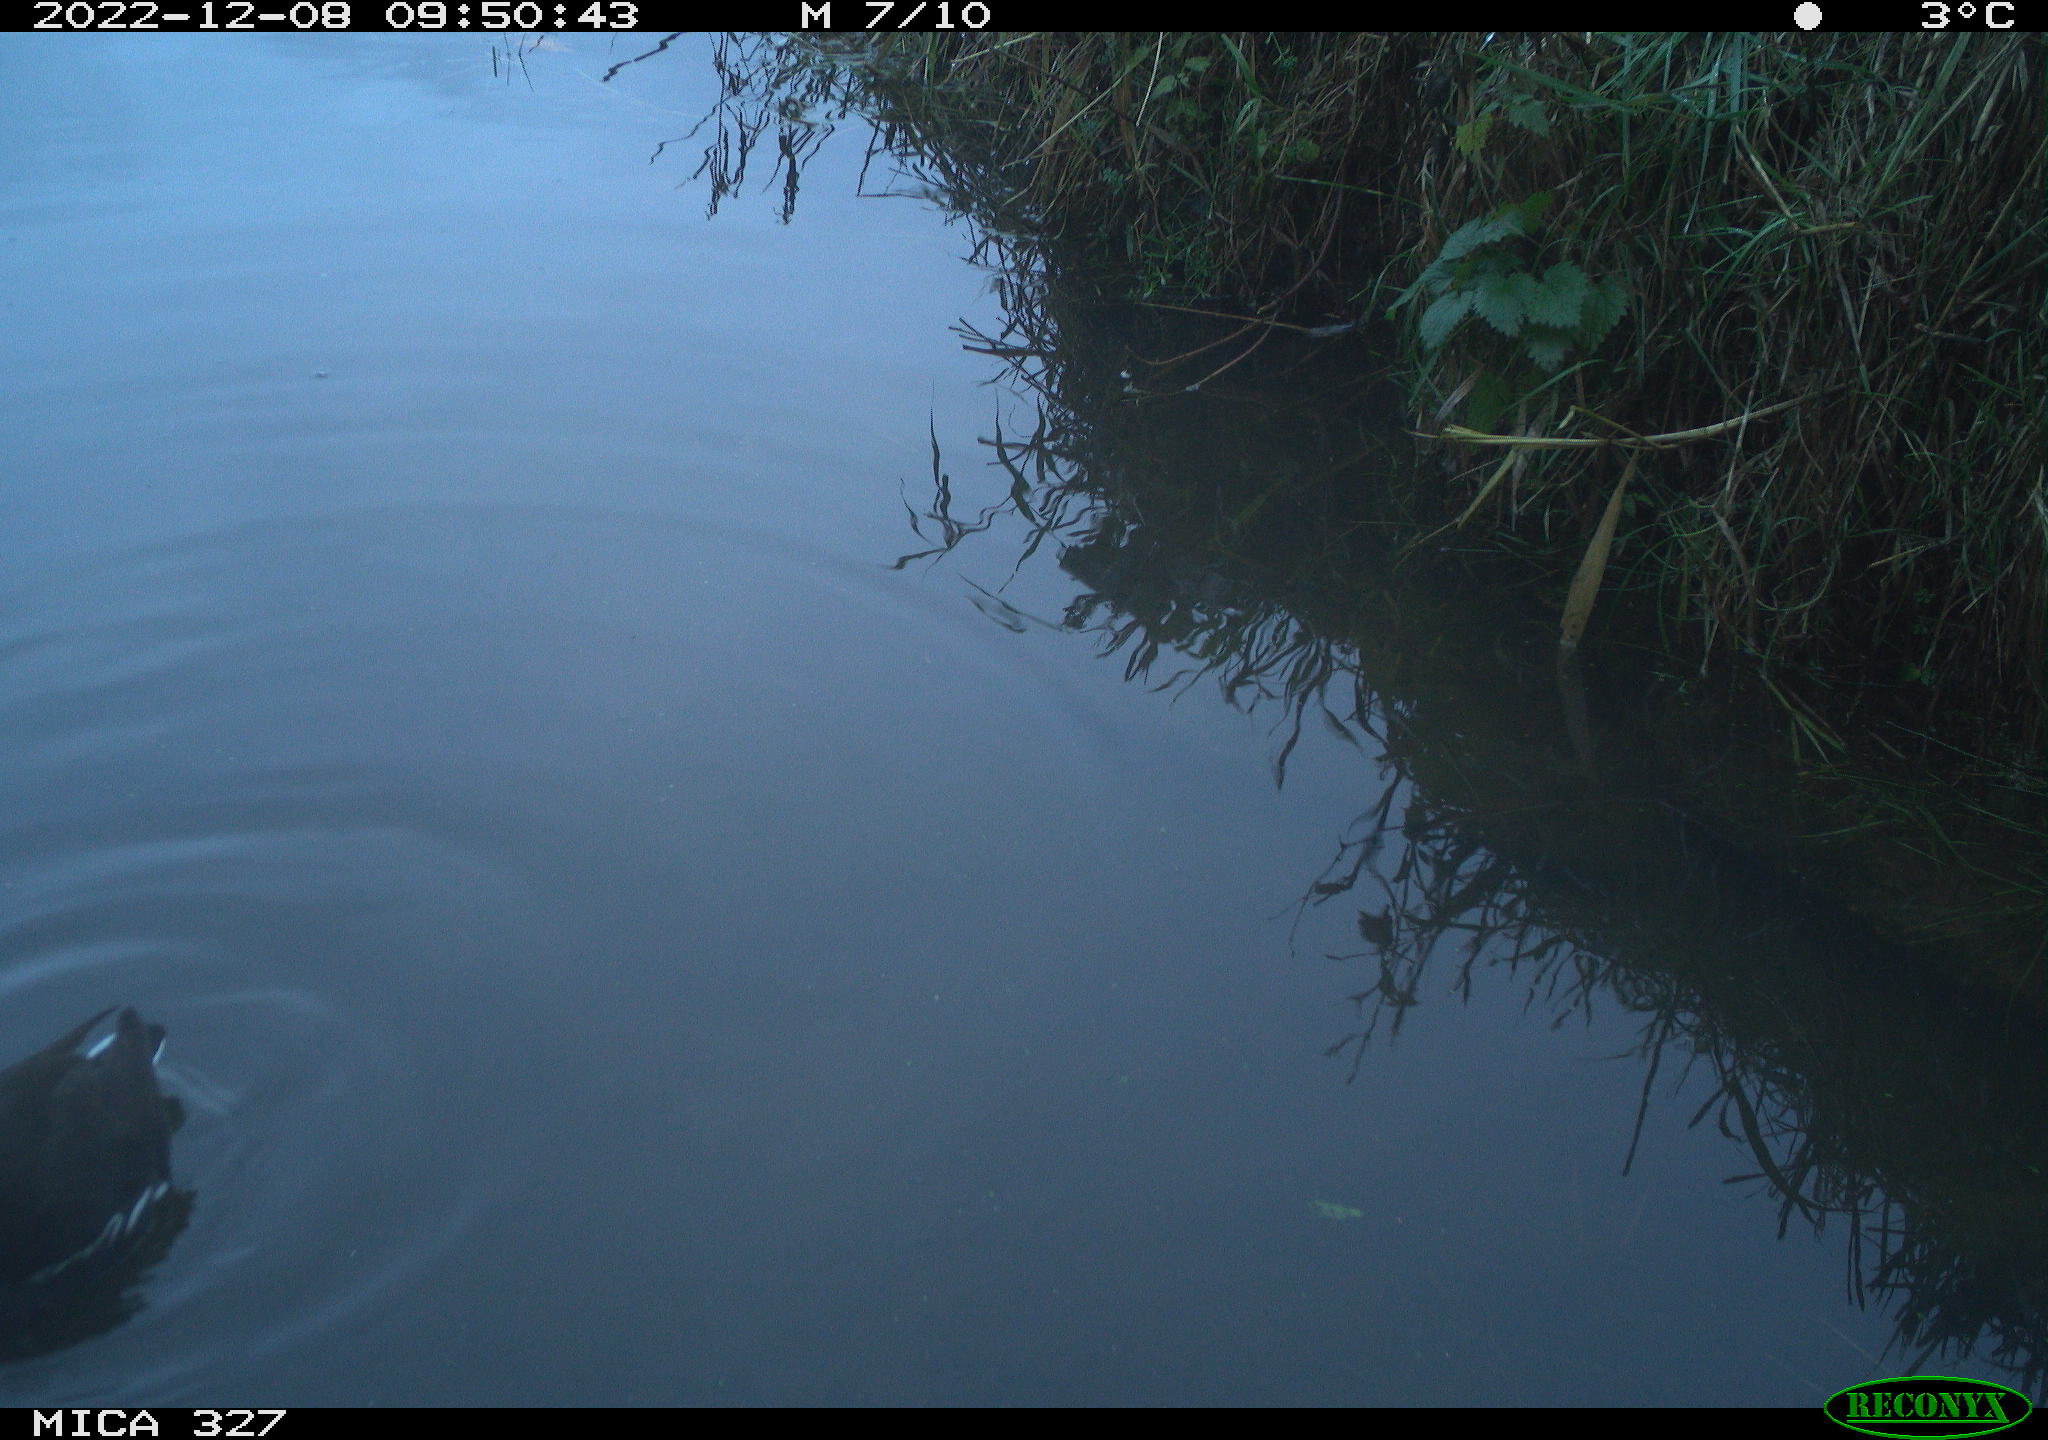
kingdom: Animalia
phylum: Chordata
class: Aves
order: Gruiformes
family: Rallidae
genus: Gallinula
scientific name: Gallinula chloropus
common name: Common moorhen
